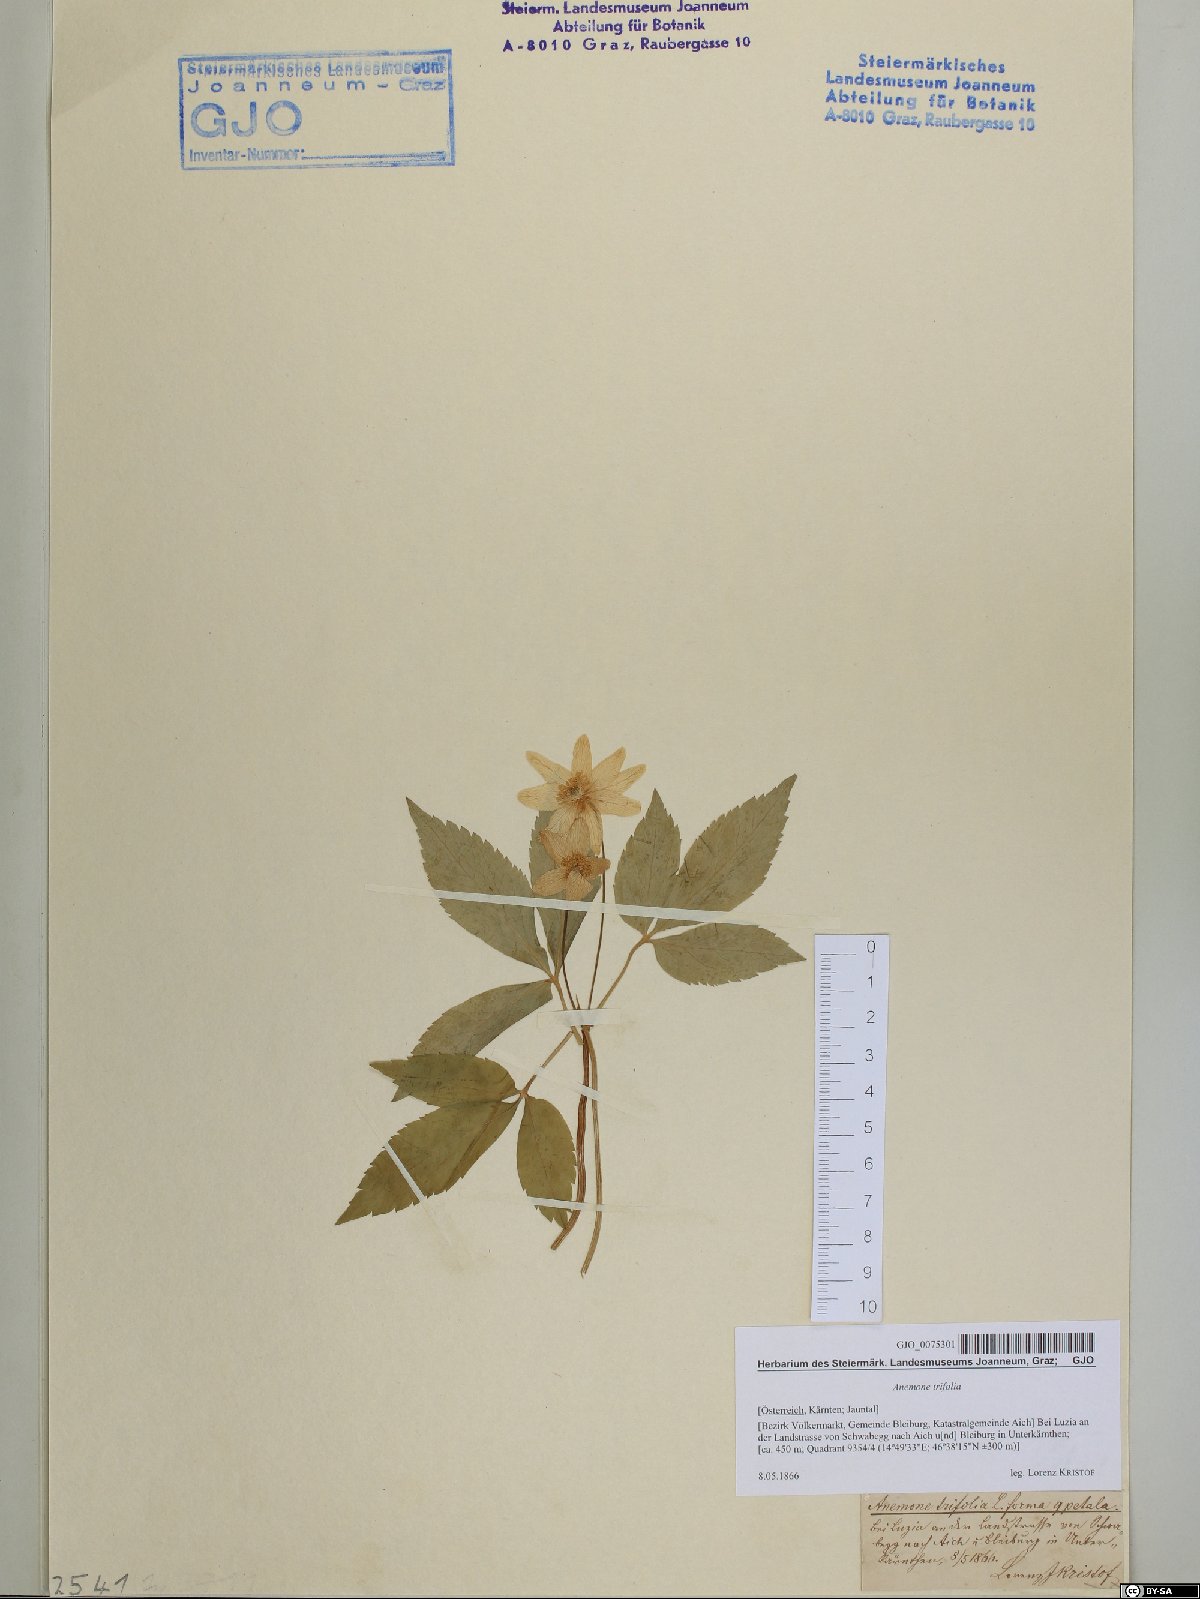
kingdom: Plantae
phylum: Tracheophyta
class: Magnoliopsida
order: Ranunculales
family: Ranunculaceae
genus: Anemone
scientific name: Anemone trifolia
